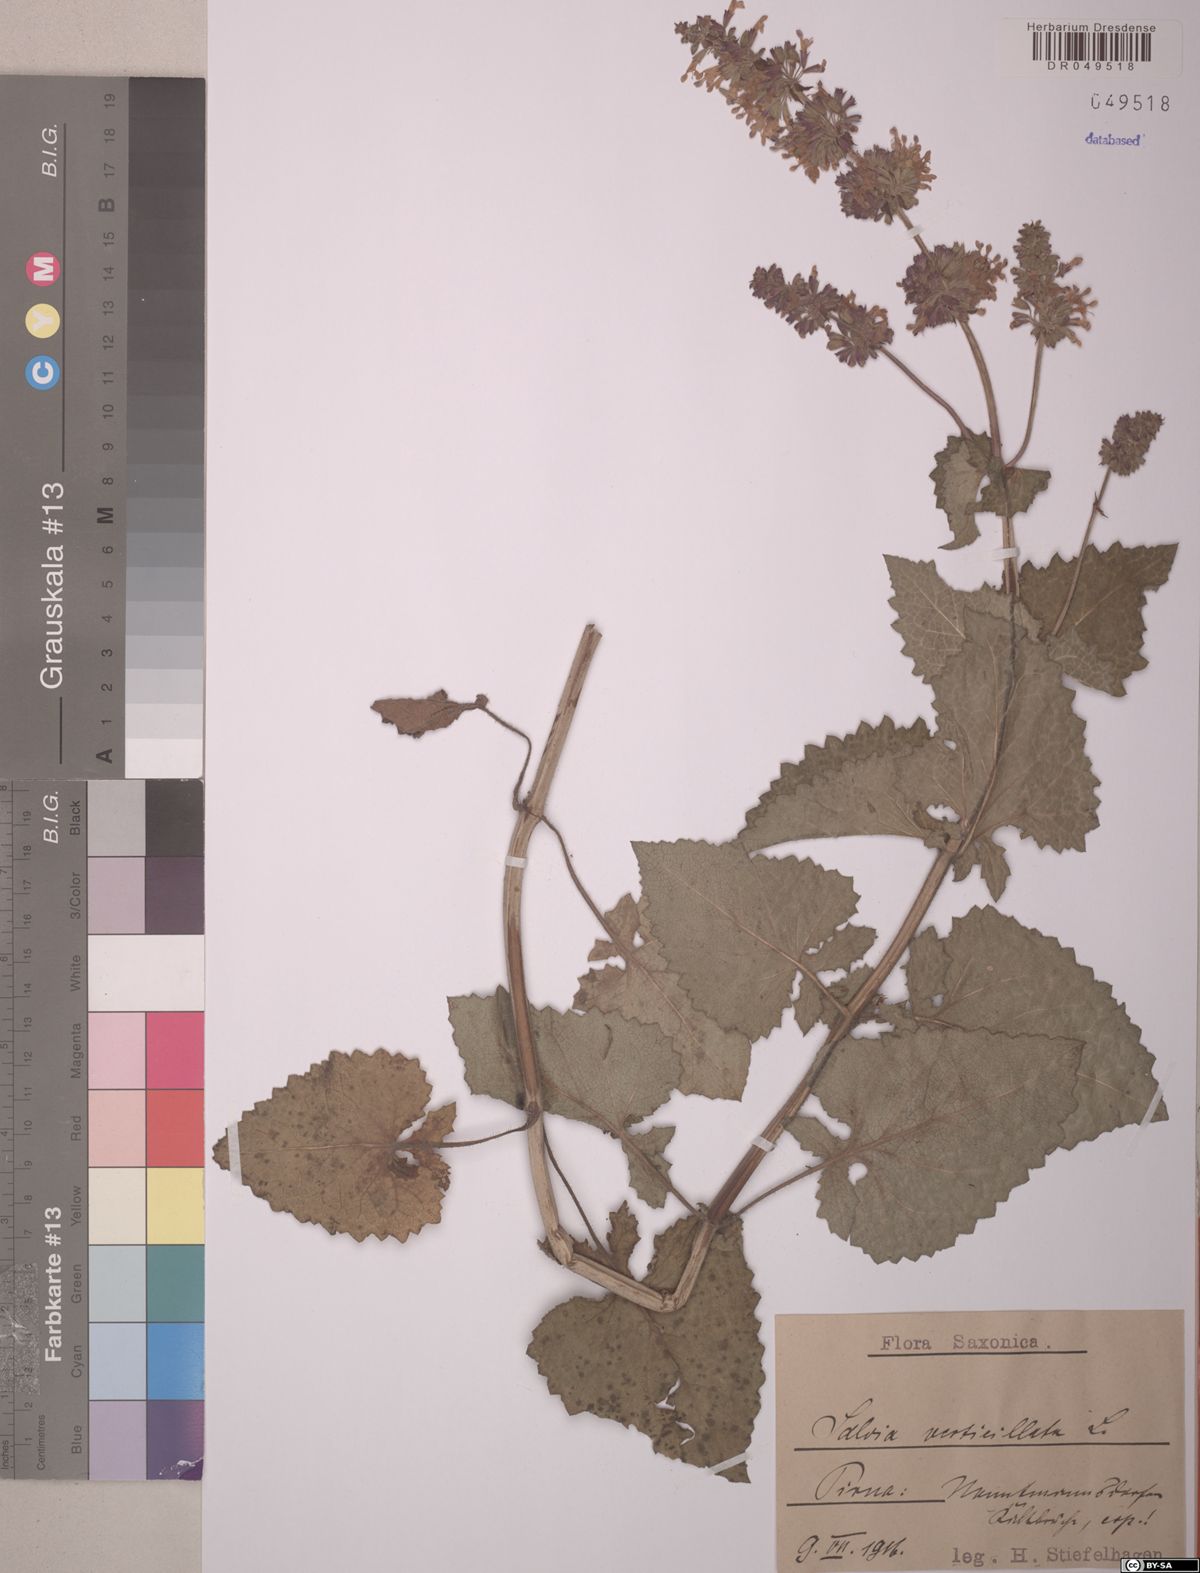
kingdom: Plantae
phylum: Tracheophyta
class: Magnoliopsida
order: Lamiales
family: Lamiaceae
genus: Salvia
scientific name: Salvia verticillata
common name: Whorled clary
